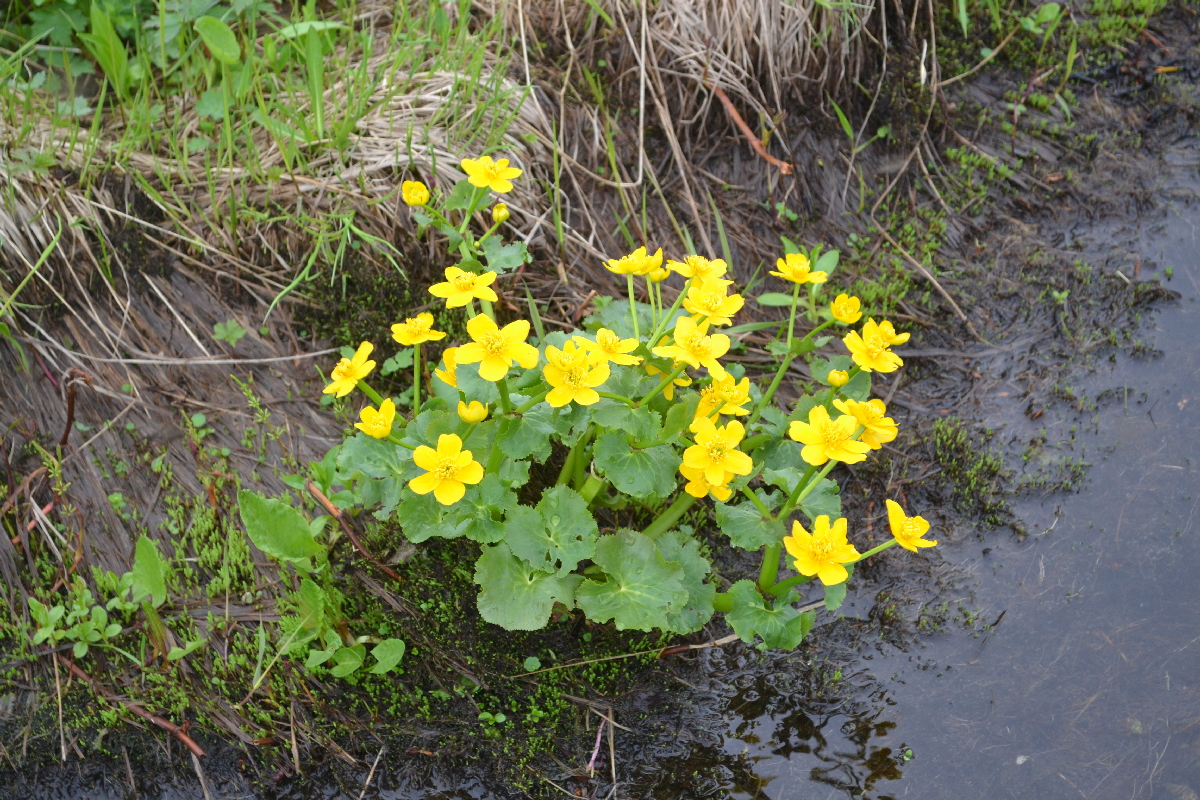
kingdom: Plantae
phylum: Tracheophyta
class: Magnoliopsida
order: Ranunculales
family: Ranunculaceae
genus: Caltha
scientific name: Caltha palustris
